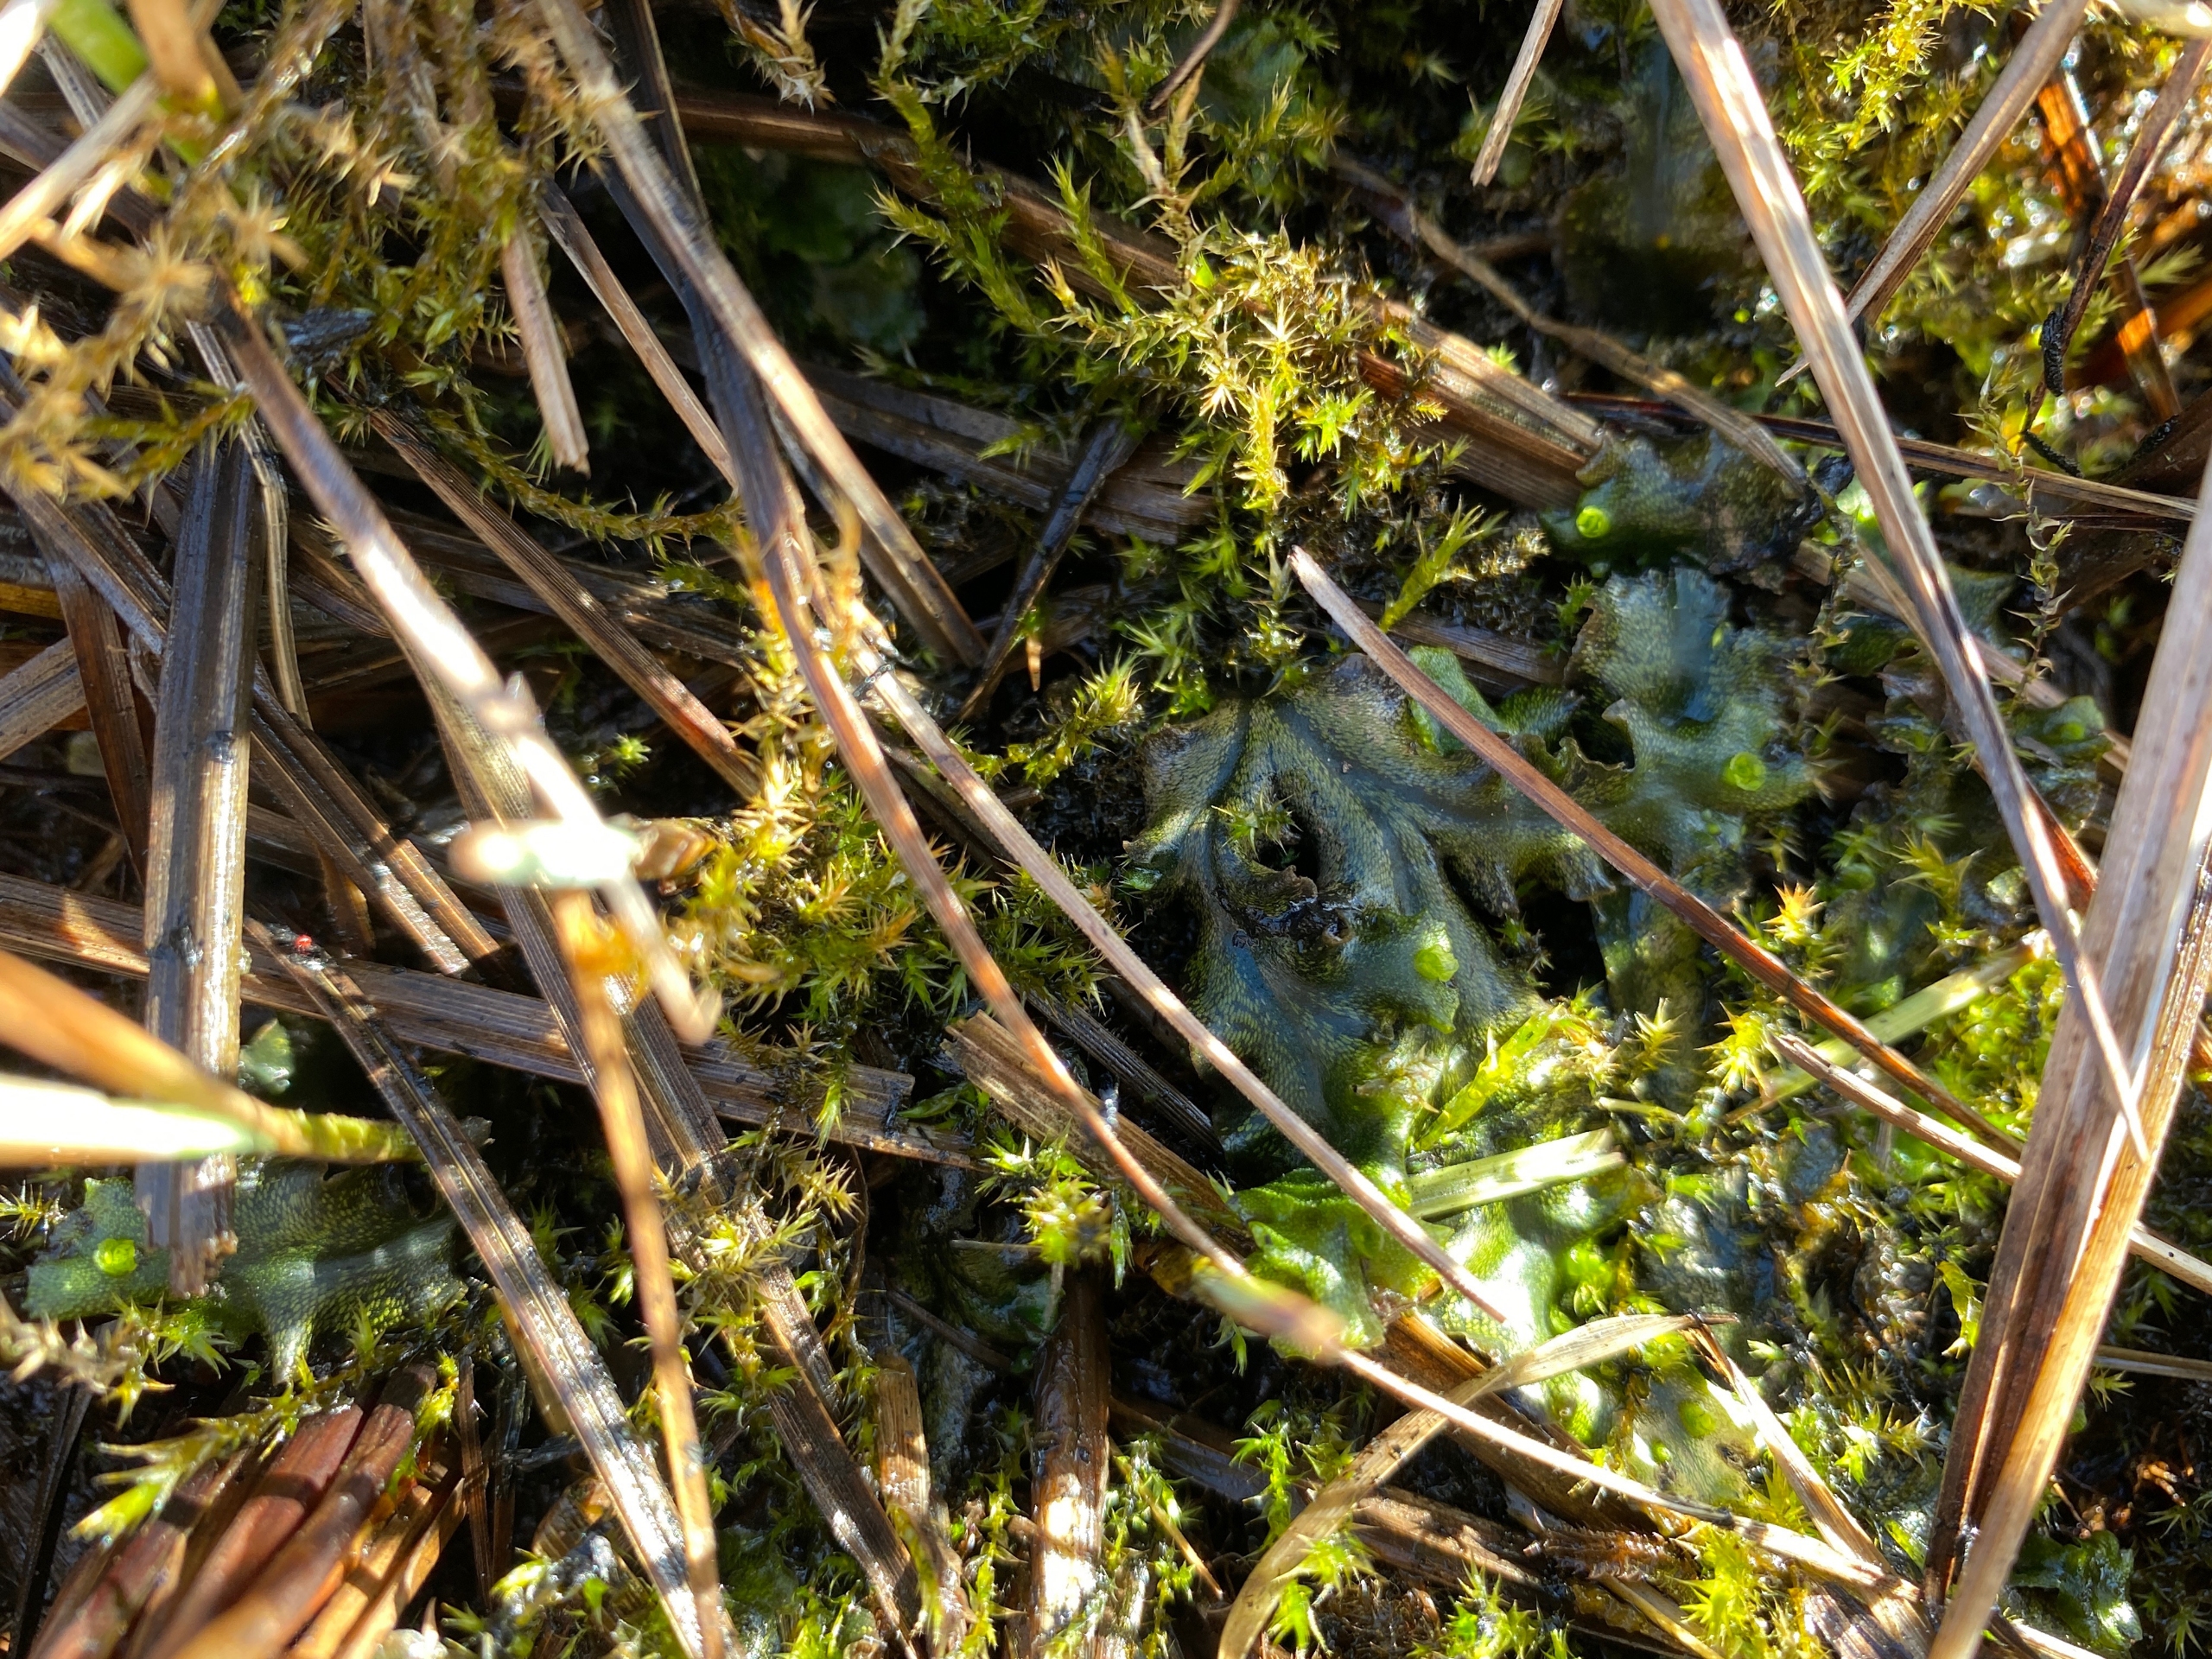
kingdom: Plantae
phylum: Marchantiophyta
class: Marchantiopsida
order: Marchantiales
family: Marchantiaceae
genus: Marchantia
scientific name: Marchantia polymorpha
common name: Mose-lungemos
